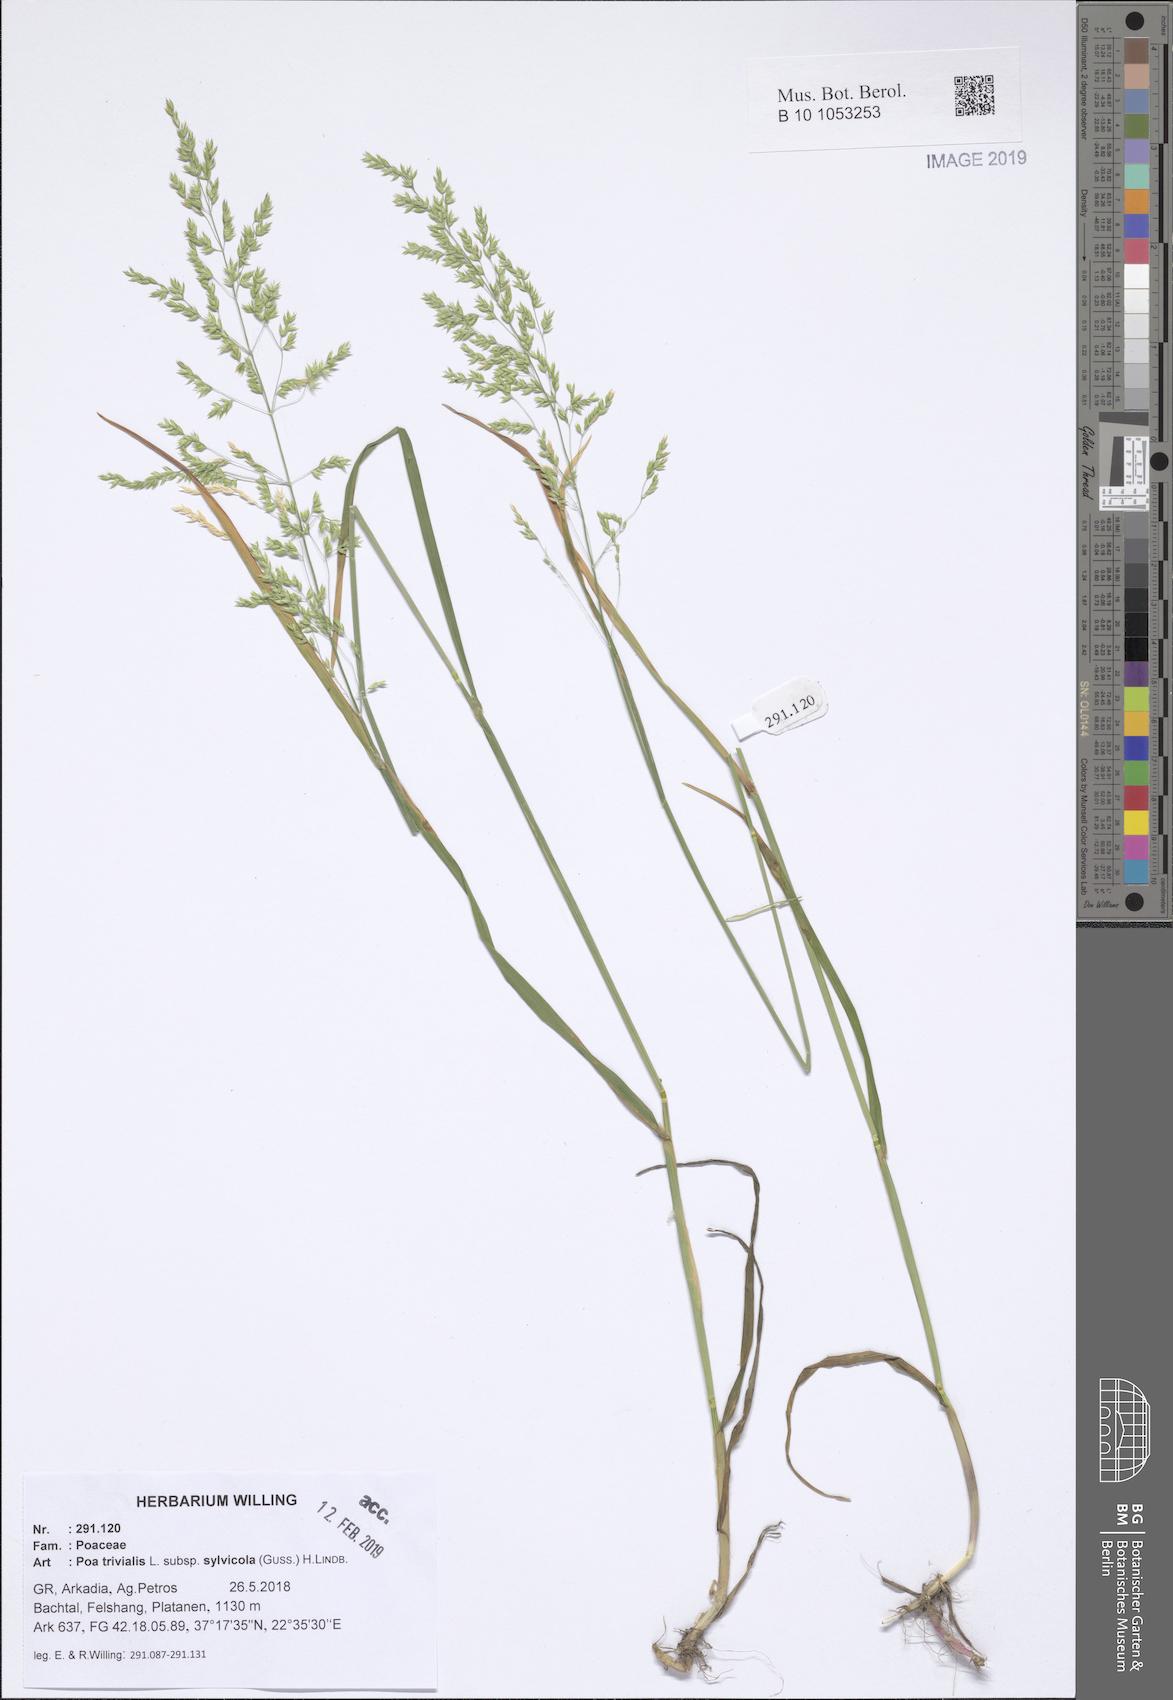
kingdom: Plantae
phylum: Tracheophyta
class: Liliopsida
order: Poales
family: Poaceae
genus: Poa
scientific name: Poa trivialis
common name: Rough bluegrass
